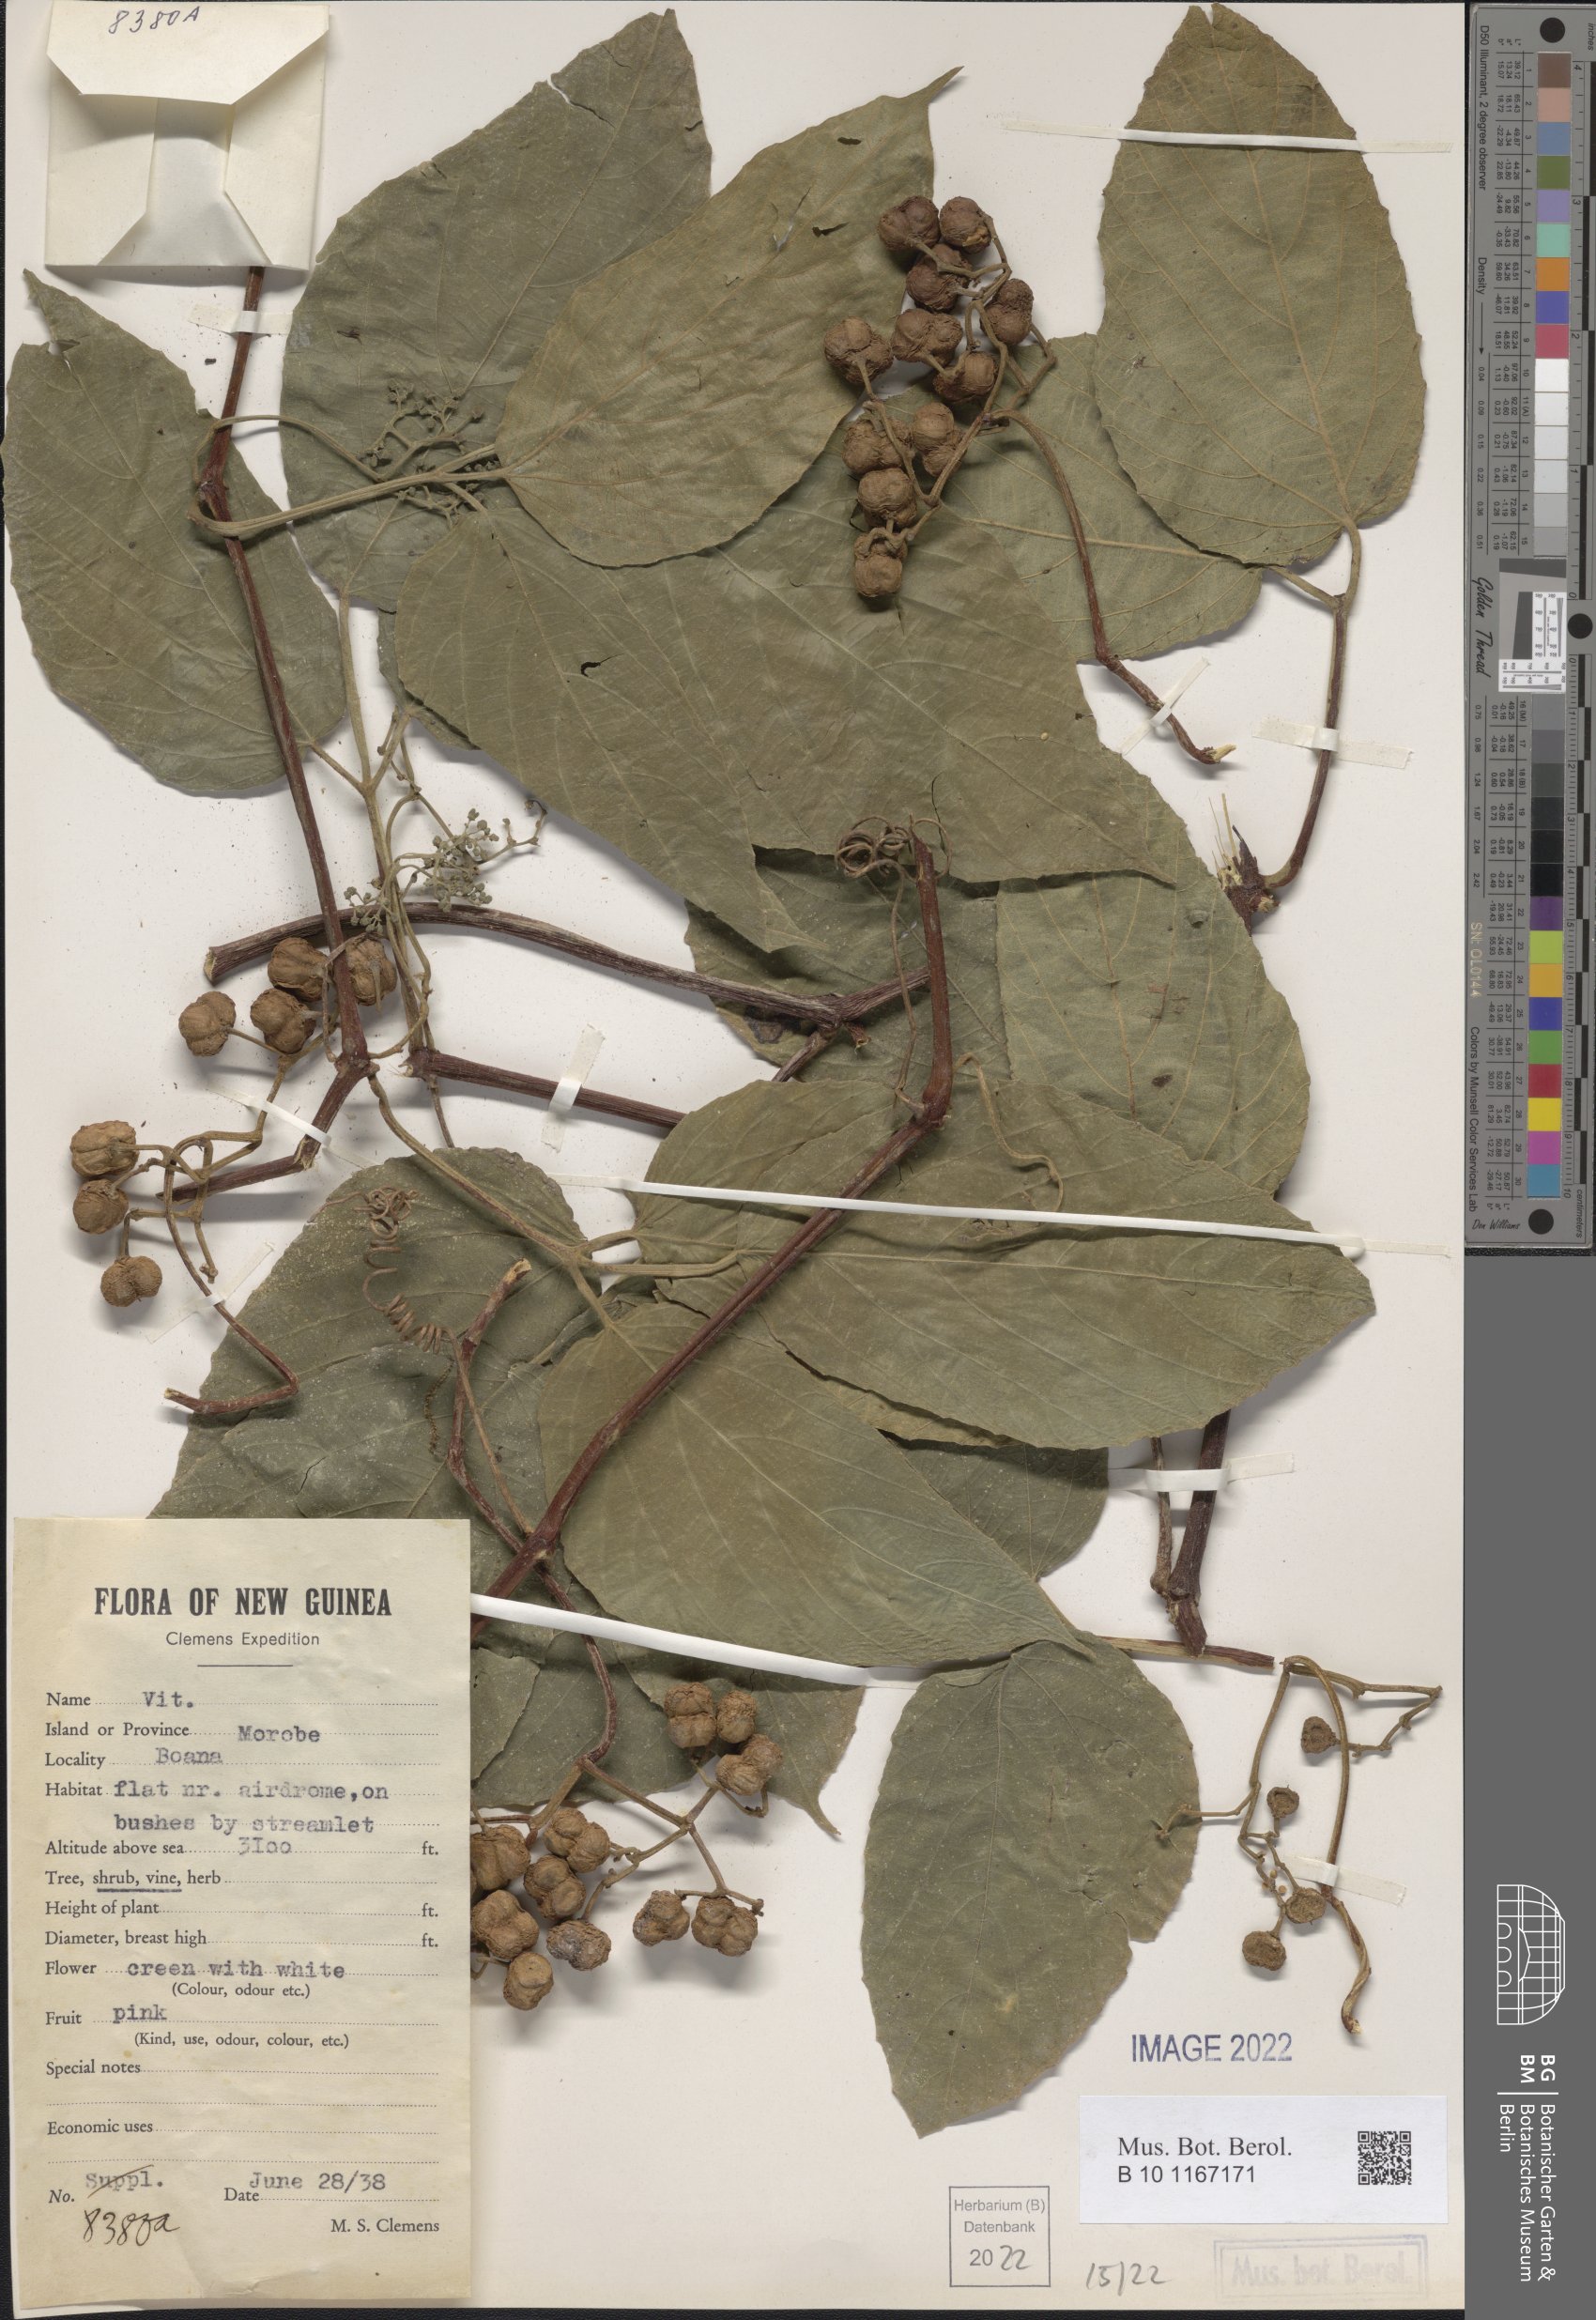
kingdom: Plantae
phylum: Tracheophyta
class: Magnoliopsida
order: Vitales
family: Vitaceae
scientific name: Vitaceae
